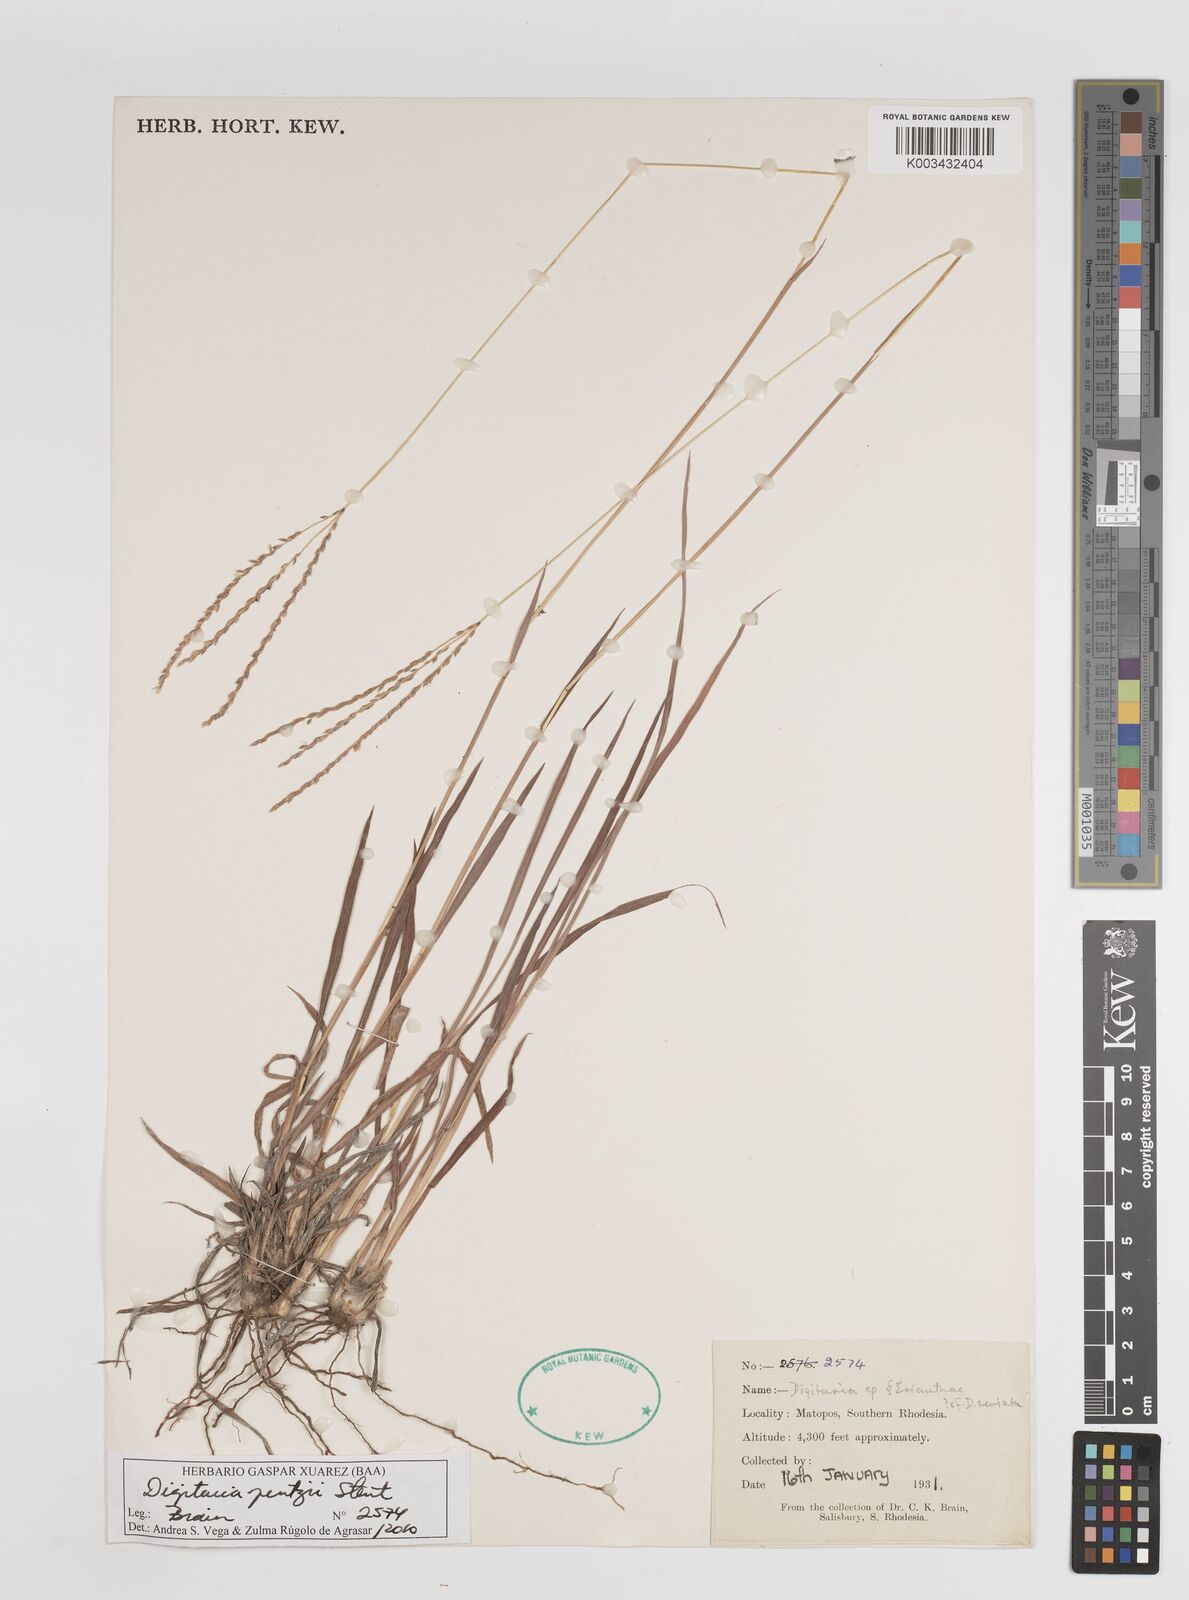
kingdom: Plantae
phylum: Tracheophyta
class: Liliopsida
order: Poales
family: Poaceae
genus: Digitaria
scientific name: Digitaria eriantha
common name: Digitgrass
